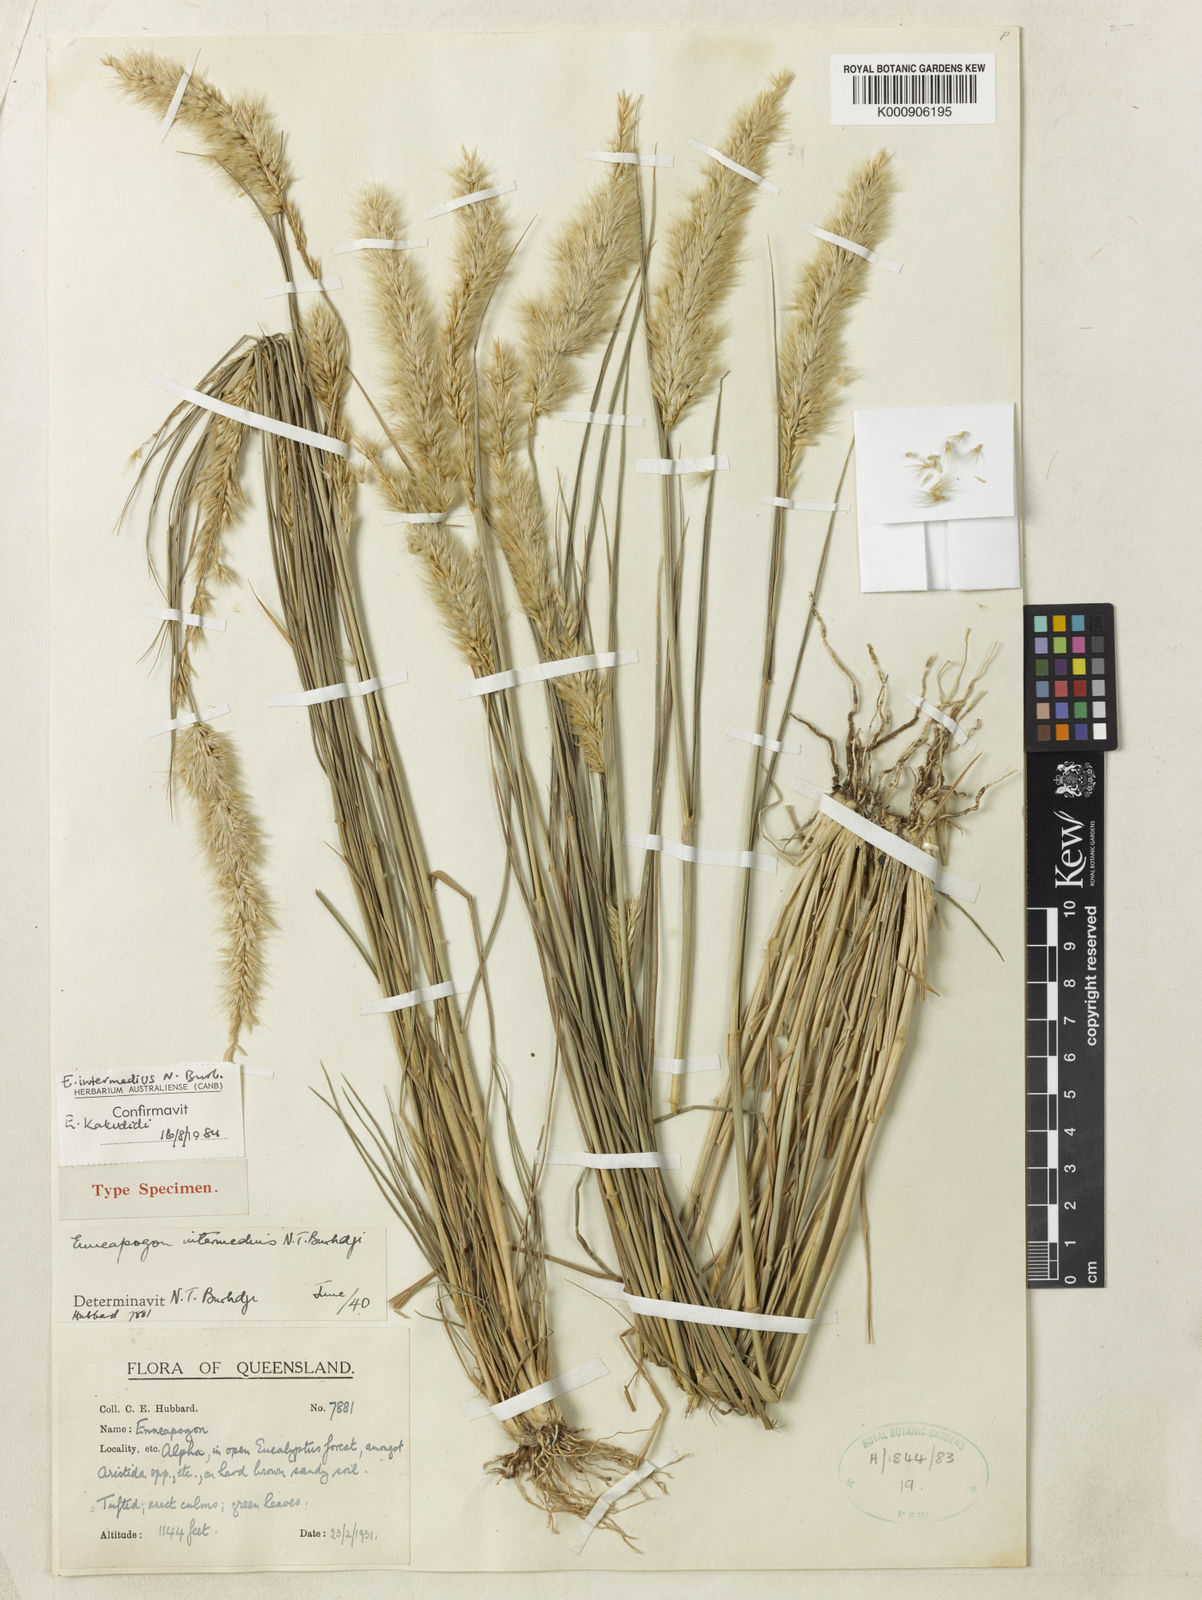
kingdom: Plantae
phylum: Tracheophyta
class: Liliopsida
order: Poales
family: Poaceae
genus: Enneapogon
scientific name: Enneapogon intermedius
